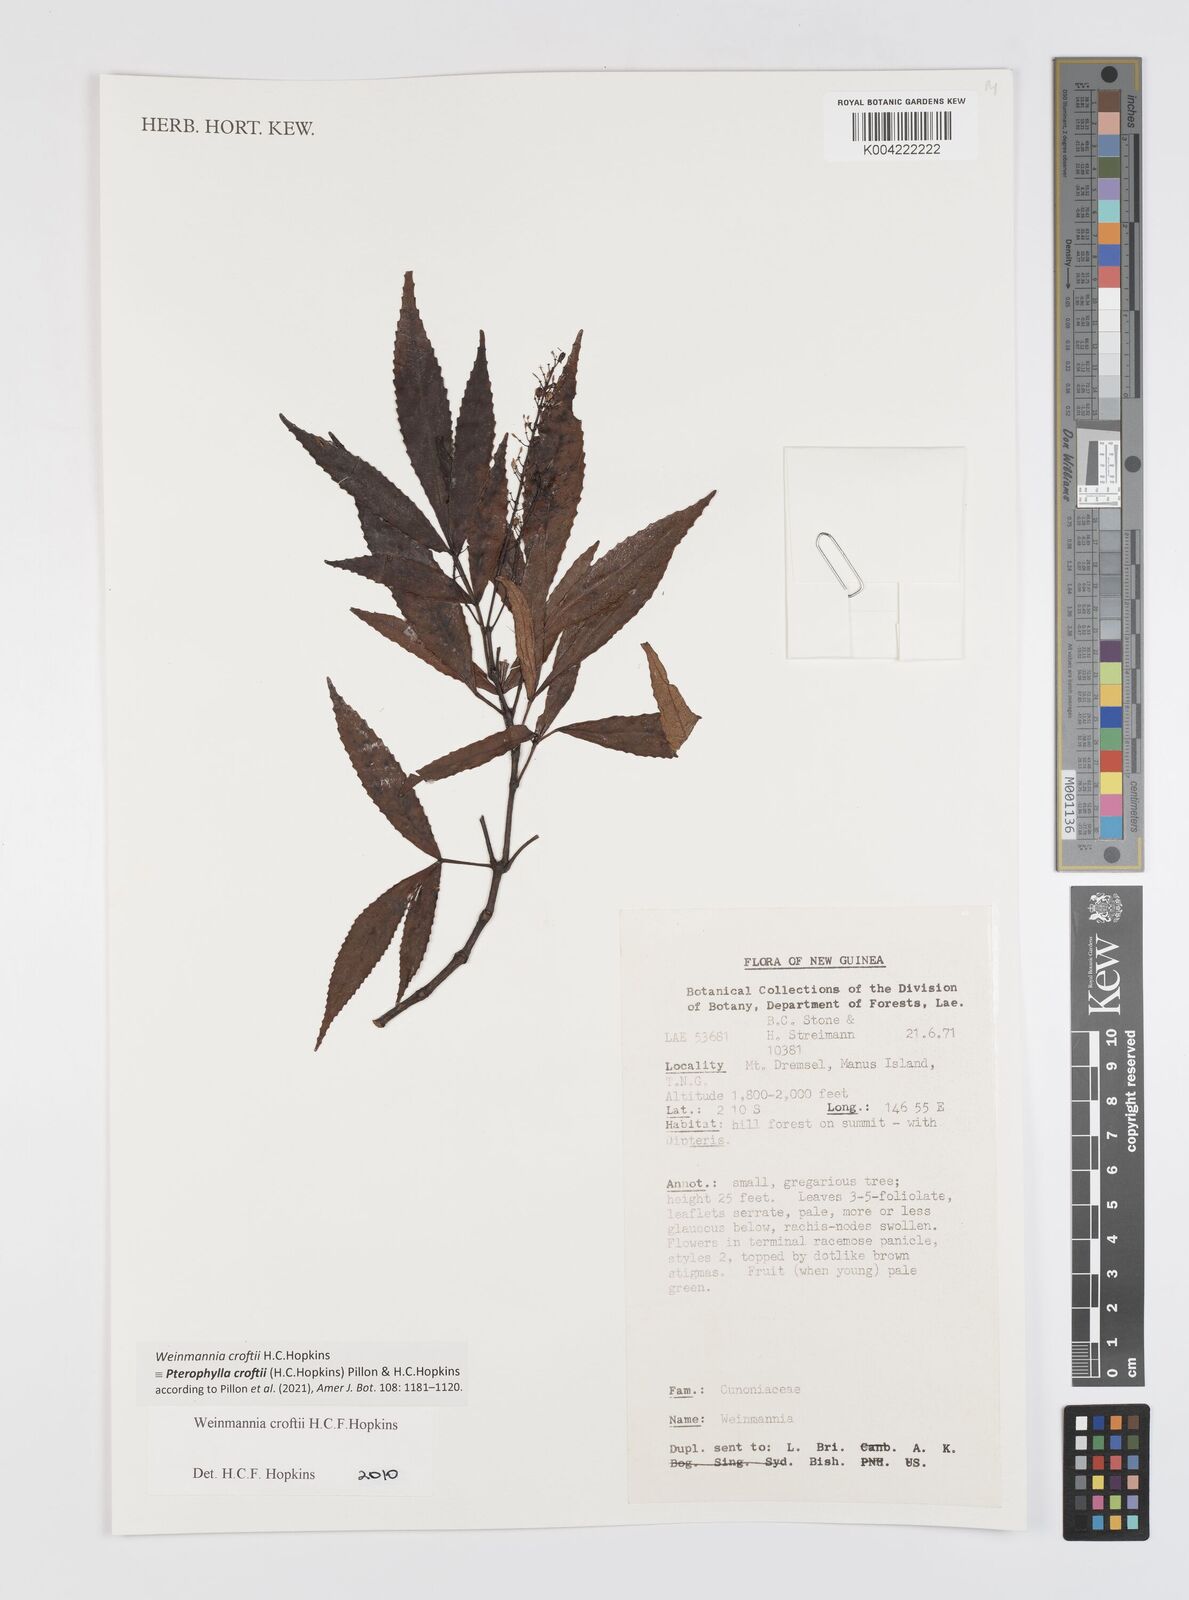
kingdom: Plantae
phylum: Tracheophyta
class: Magnoliopsida
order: Oxalidales
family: Cunoniaceae
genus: Pterophylla
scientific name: Pterophylla croftii
